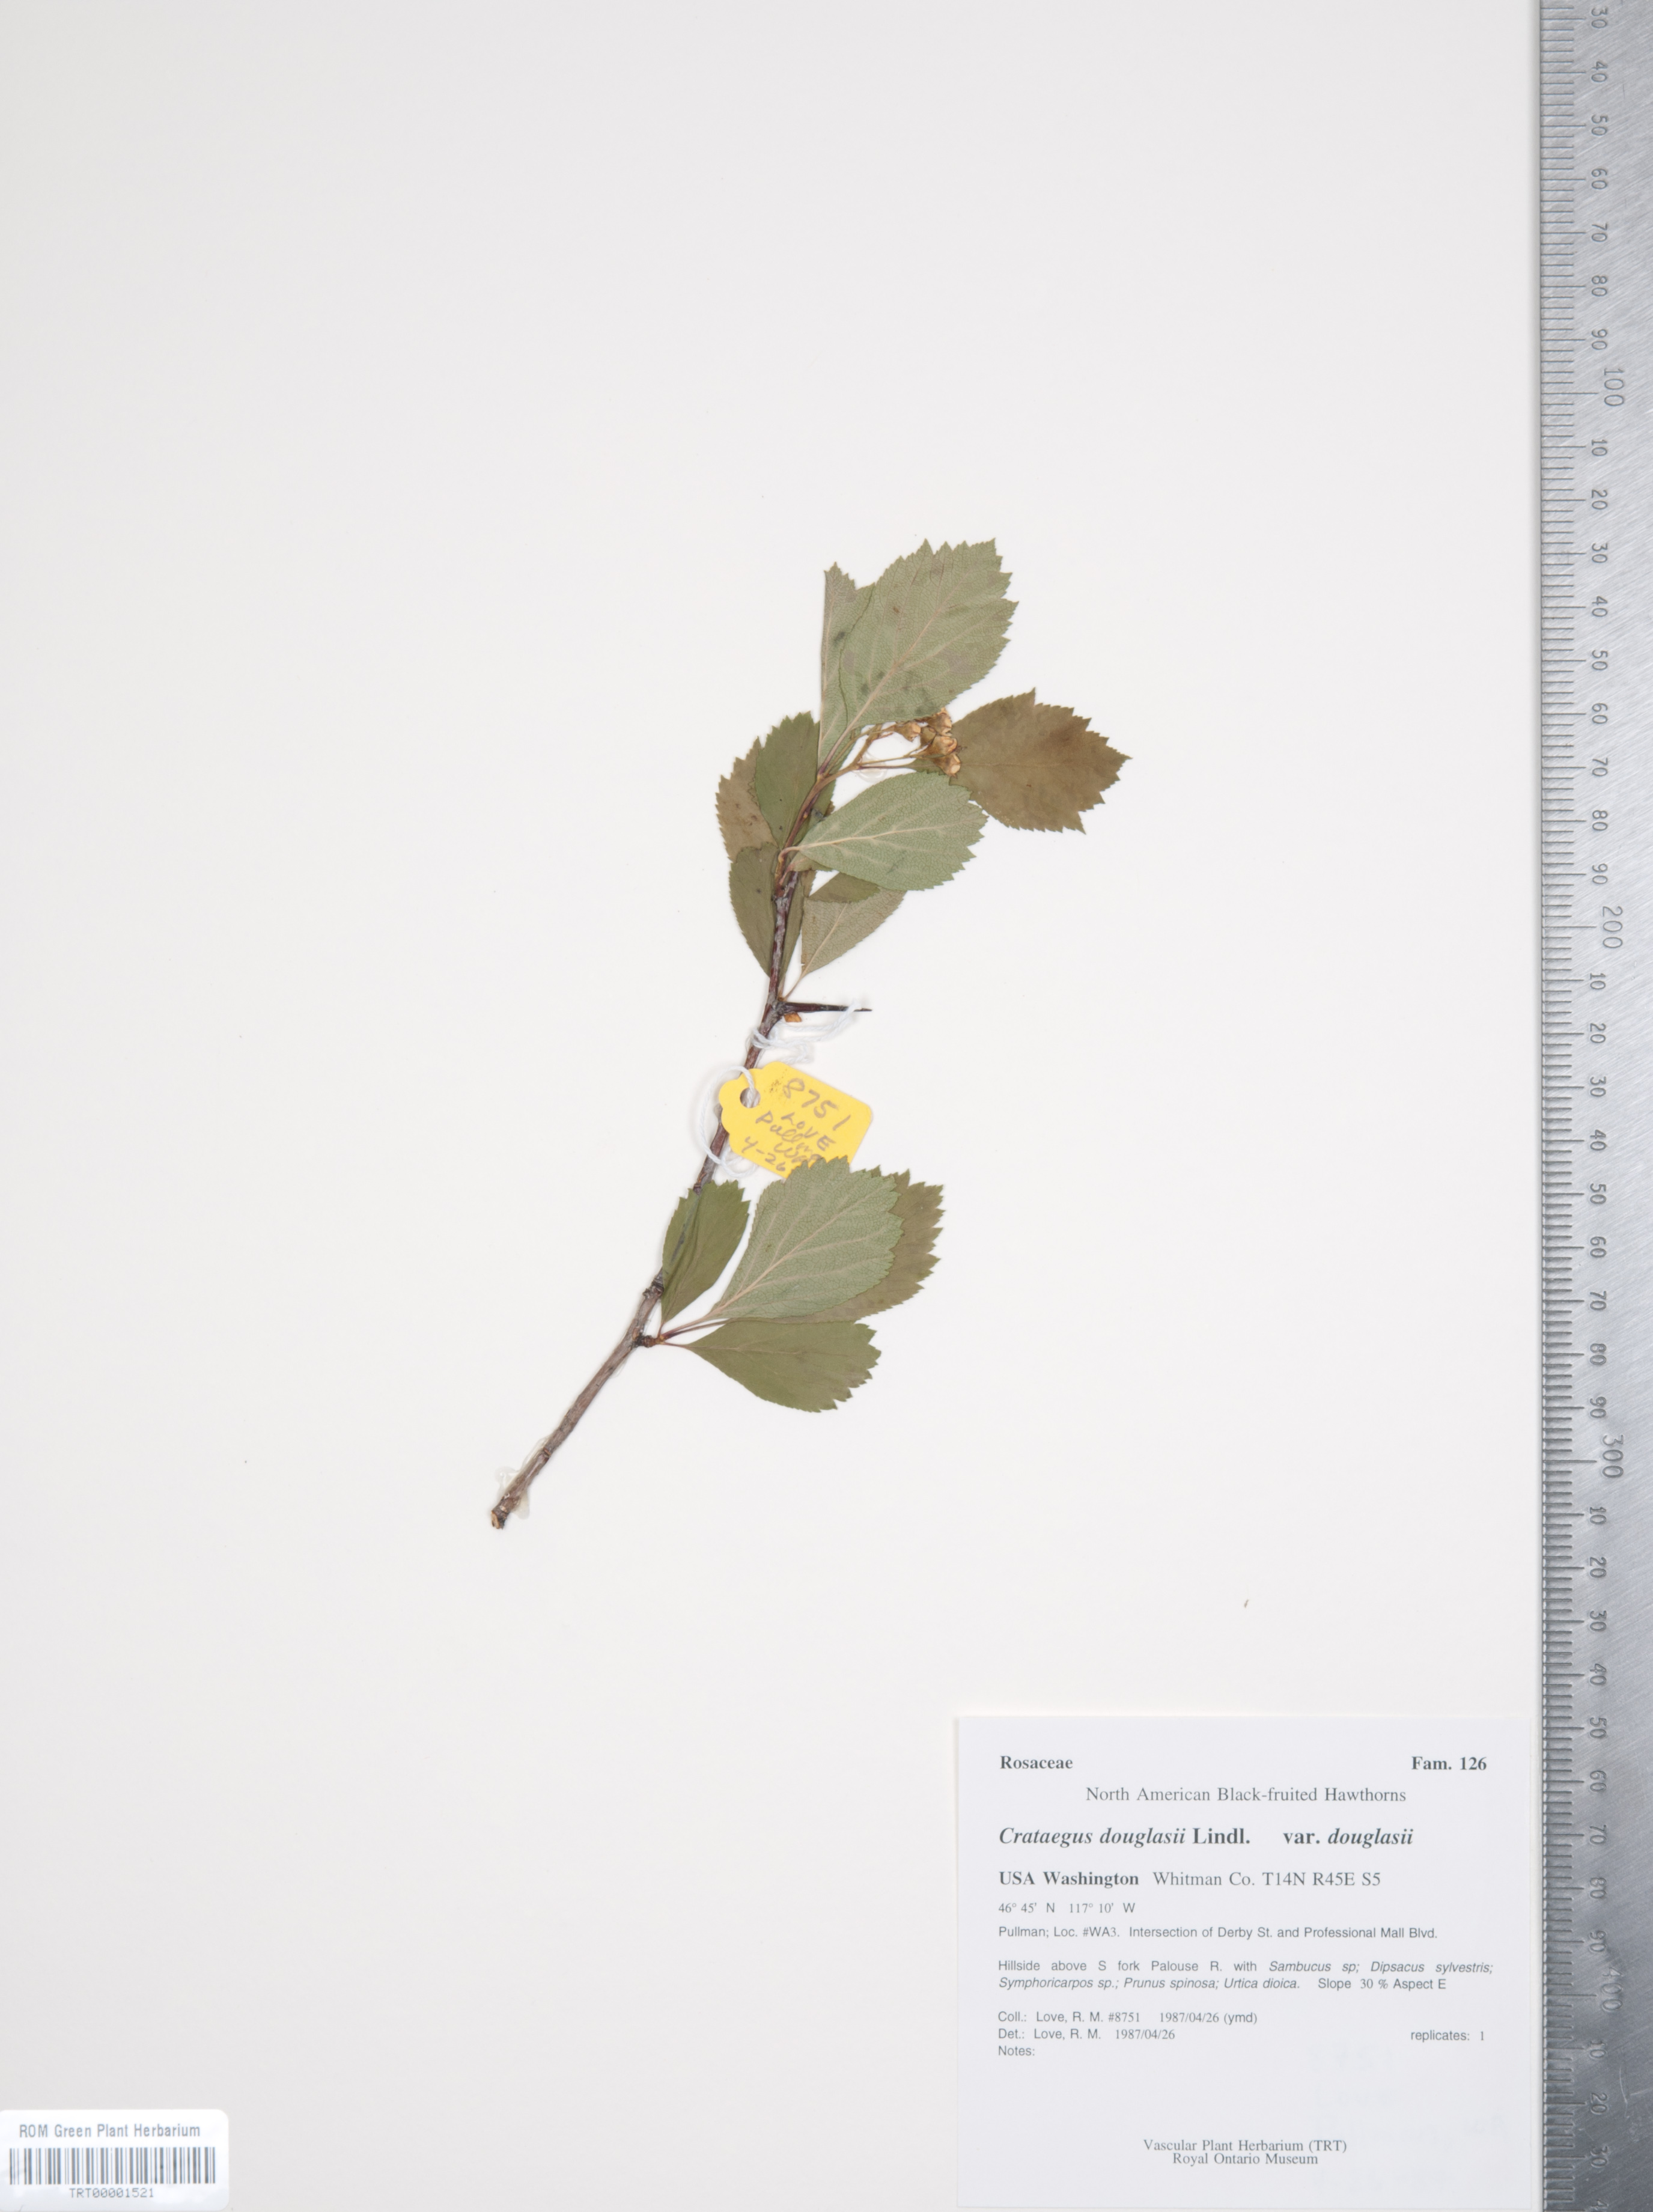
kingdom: Plantae
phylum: Tracheophyta
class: Magnoliopsida
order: Rosales
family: Rosaceae
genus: Crataegus
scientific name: Crataegus douglasii
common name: Black hawthorn
